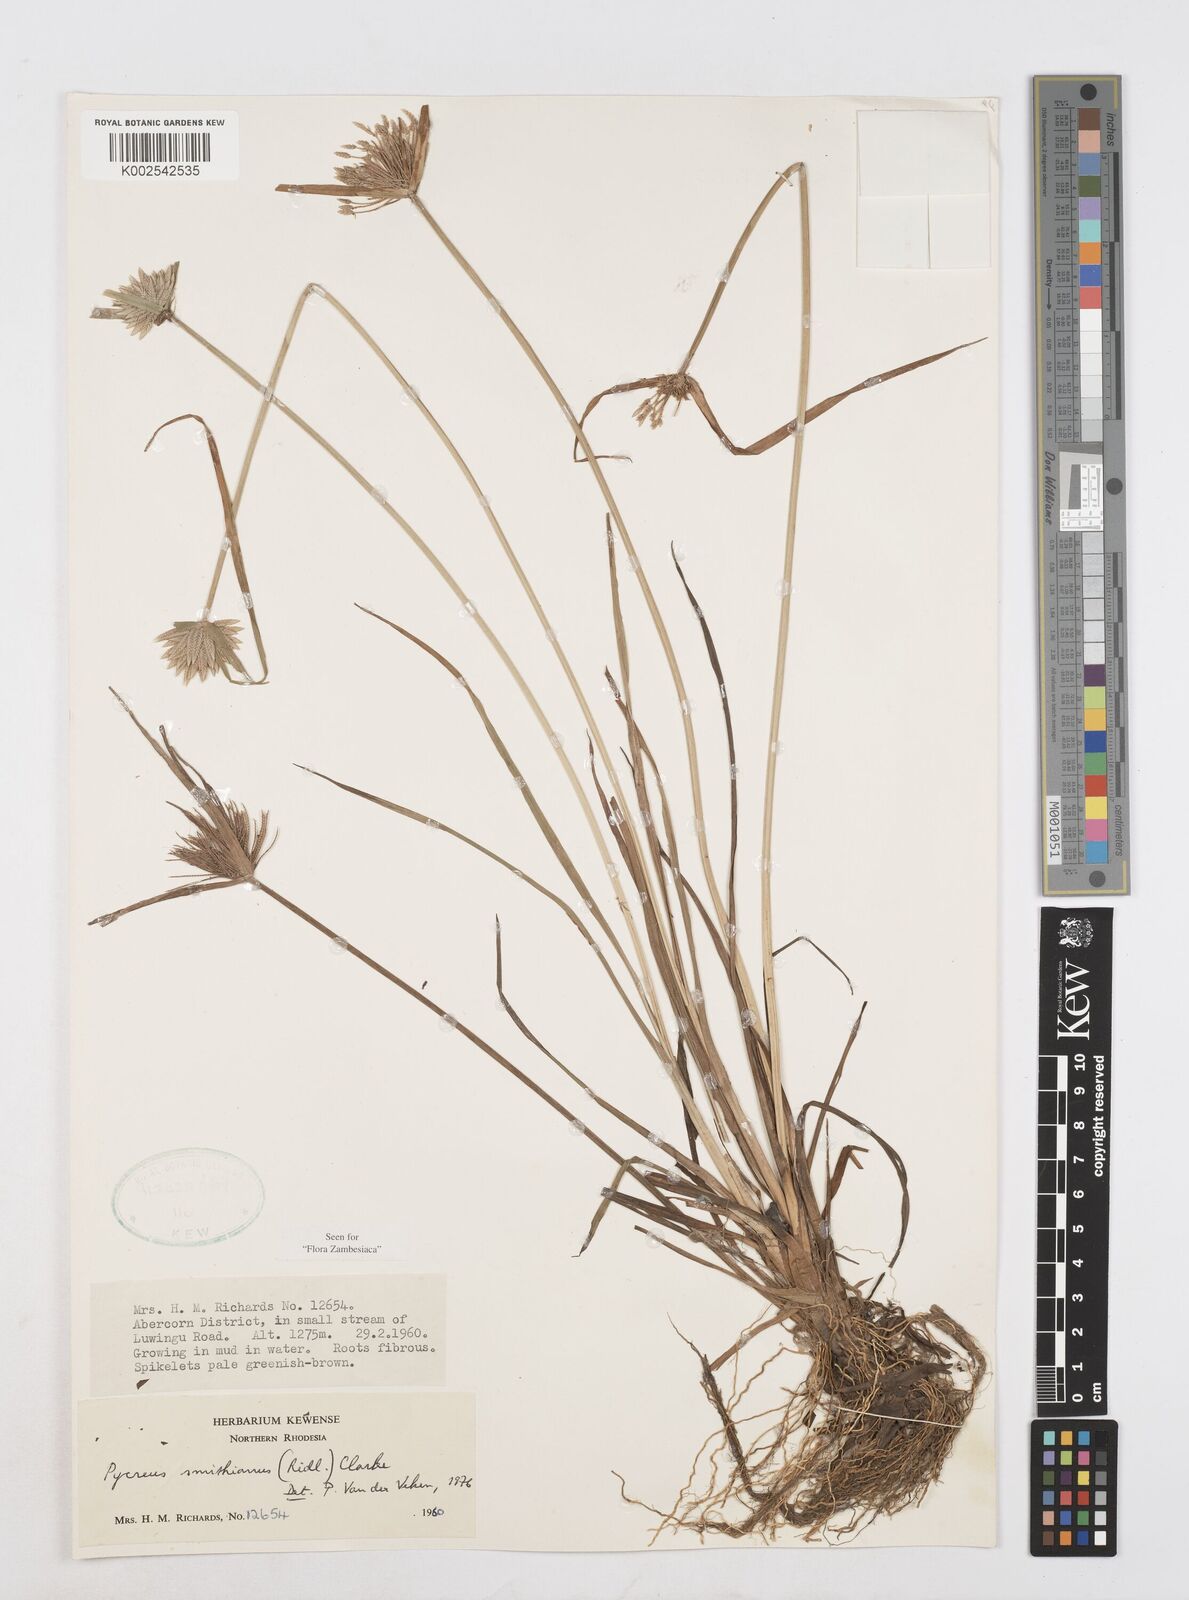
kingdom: Plantae
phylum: Tracheophyta
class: Liliopsida
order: Poales
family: Cyperaceae
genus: Cyperus
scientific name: Cyperus smithianus
